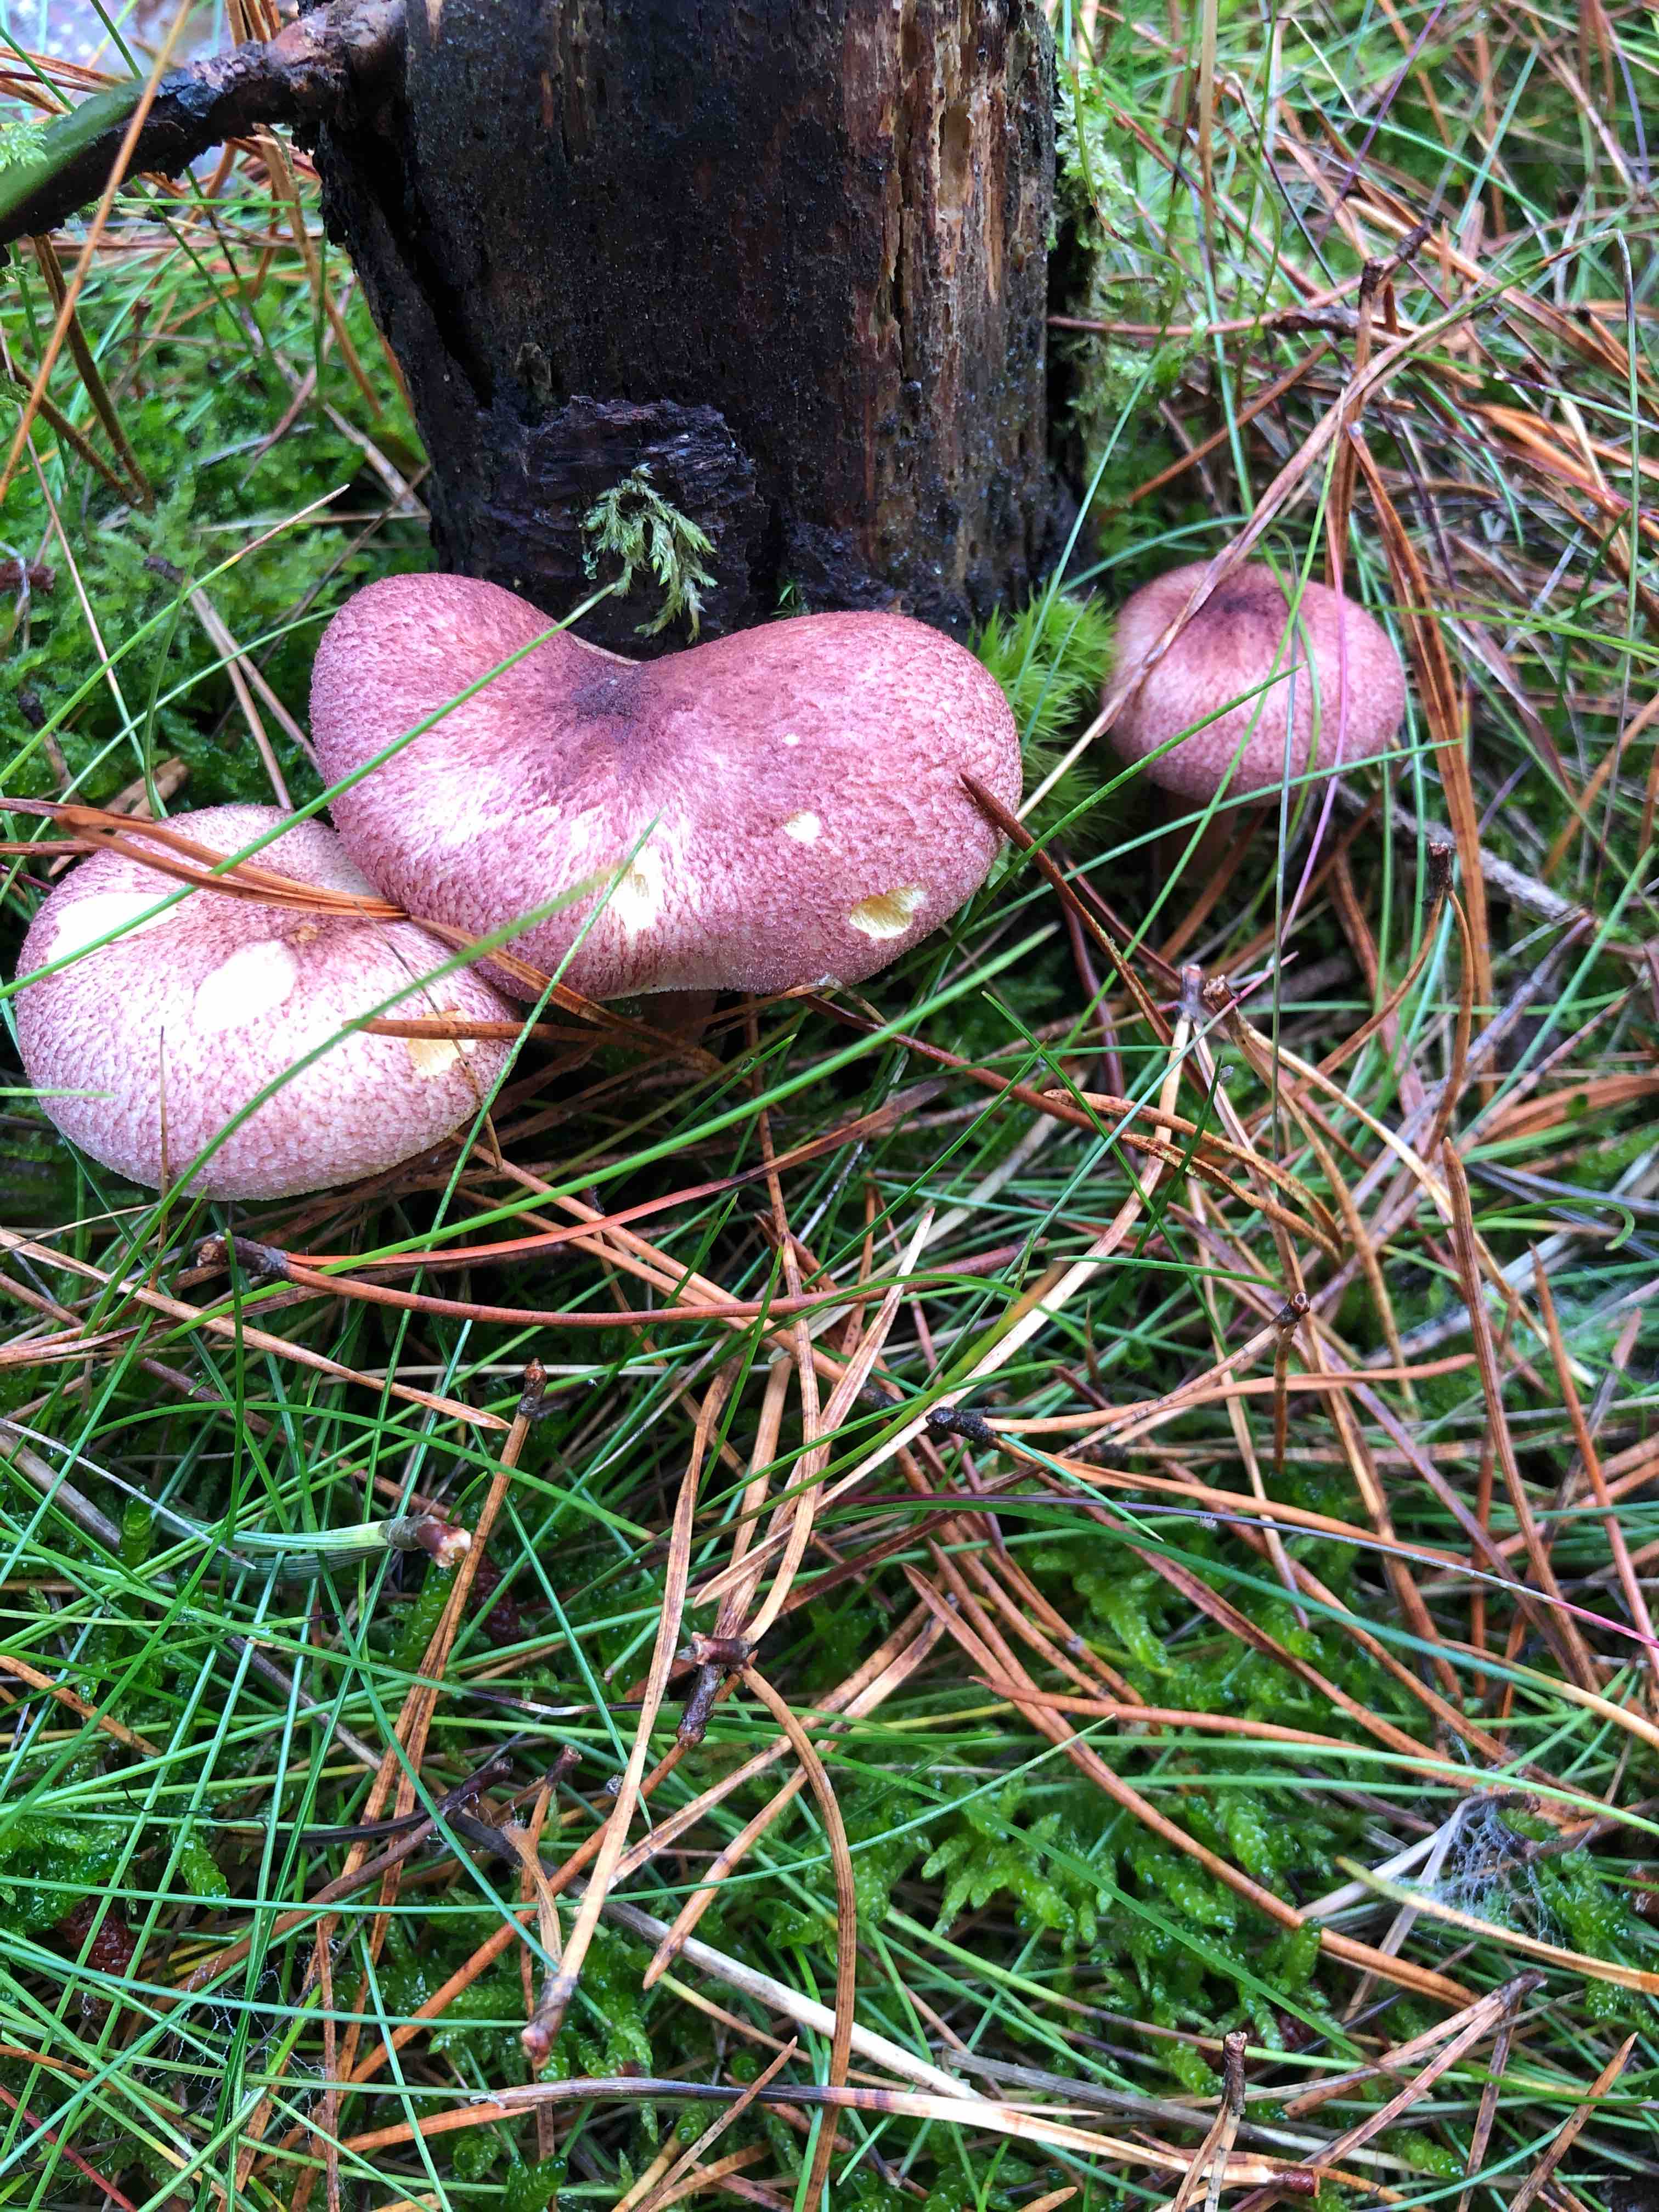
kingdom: Fungi
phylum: Basidiomycota
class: Agaricomycetes
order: Agaricales
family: Tricholomataceae
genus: Tricholomopsis
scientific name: Tricholomopsis rutilans
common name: purpur-væbnerhat
